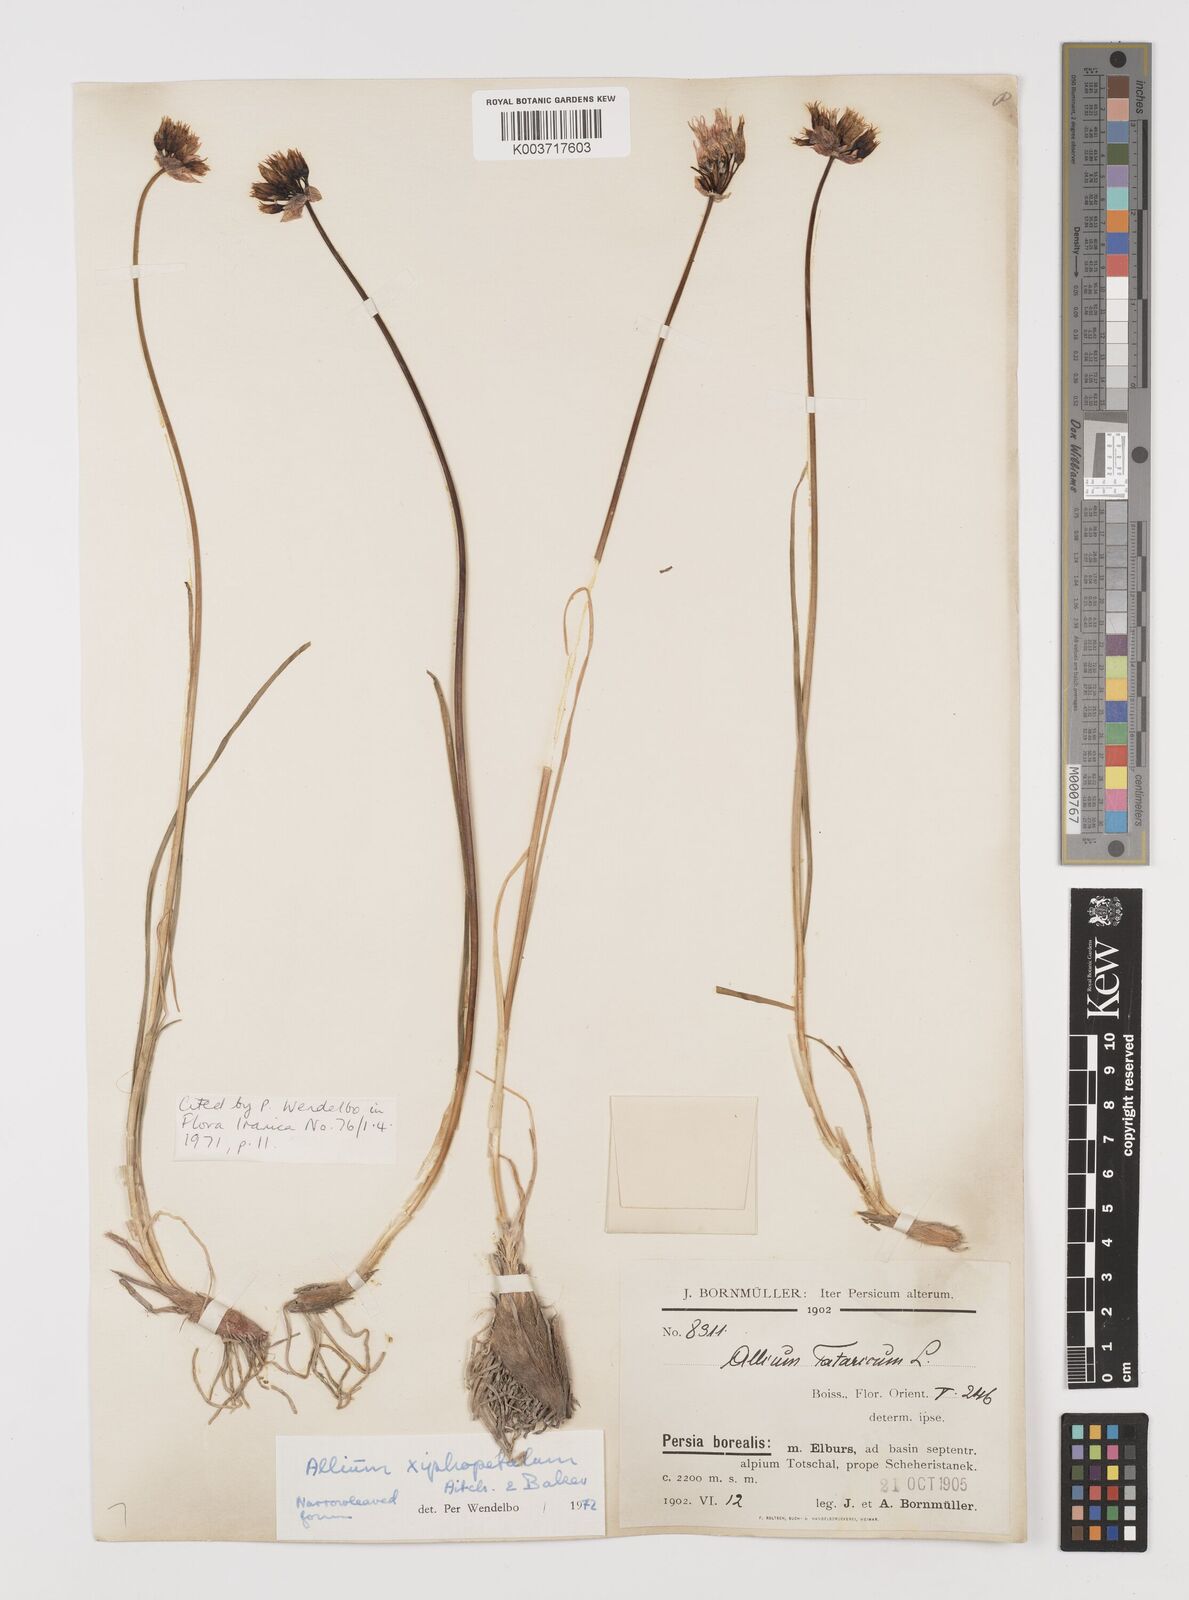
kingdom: Plantae
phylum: Tracheophyta
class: Liliopsida
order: Asparagales
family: Amaryllidaceae
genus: Allium
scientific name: Allium xiphopetalum
